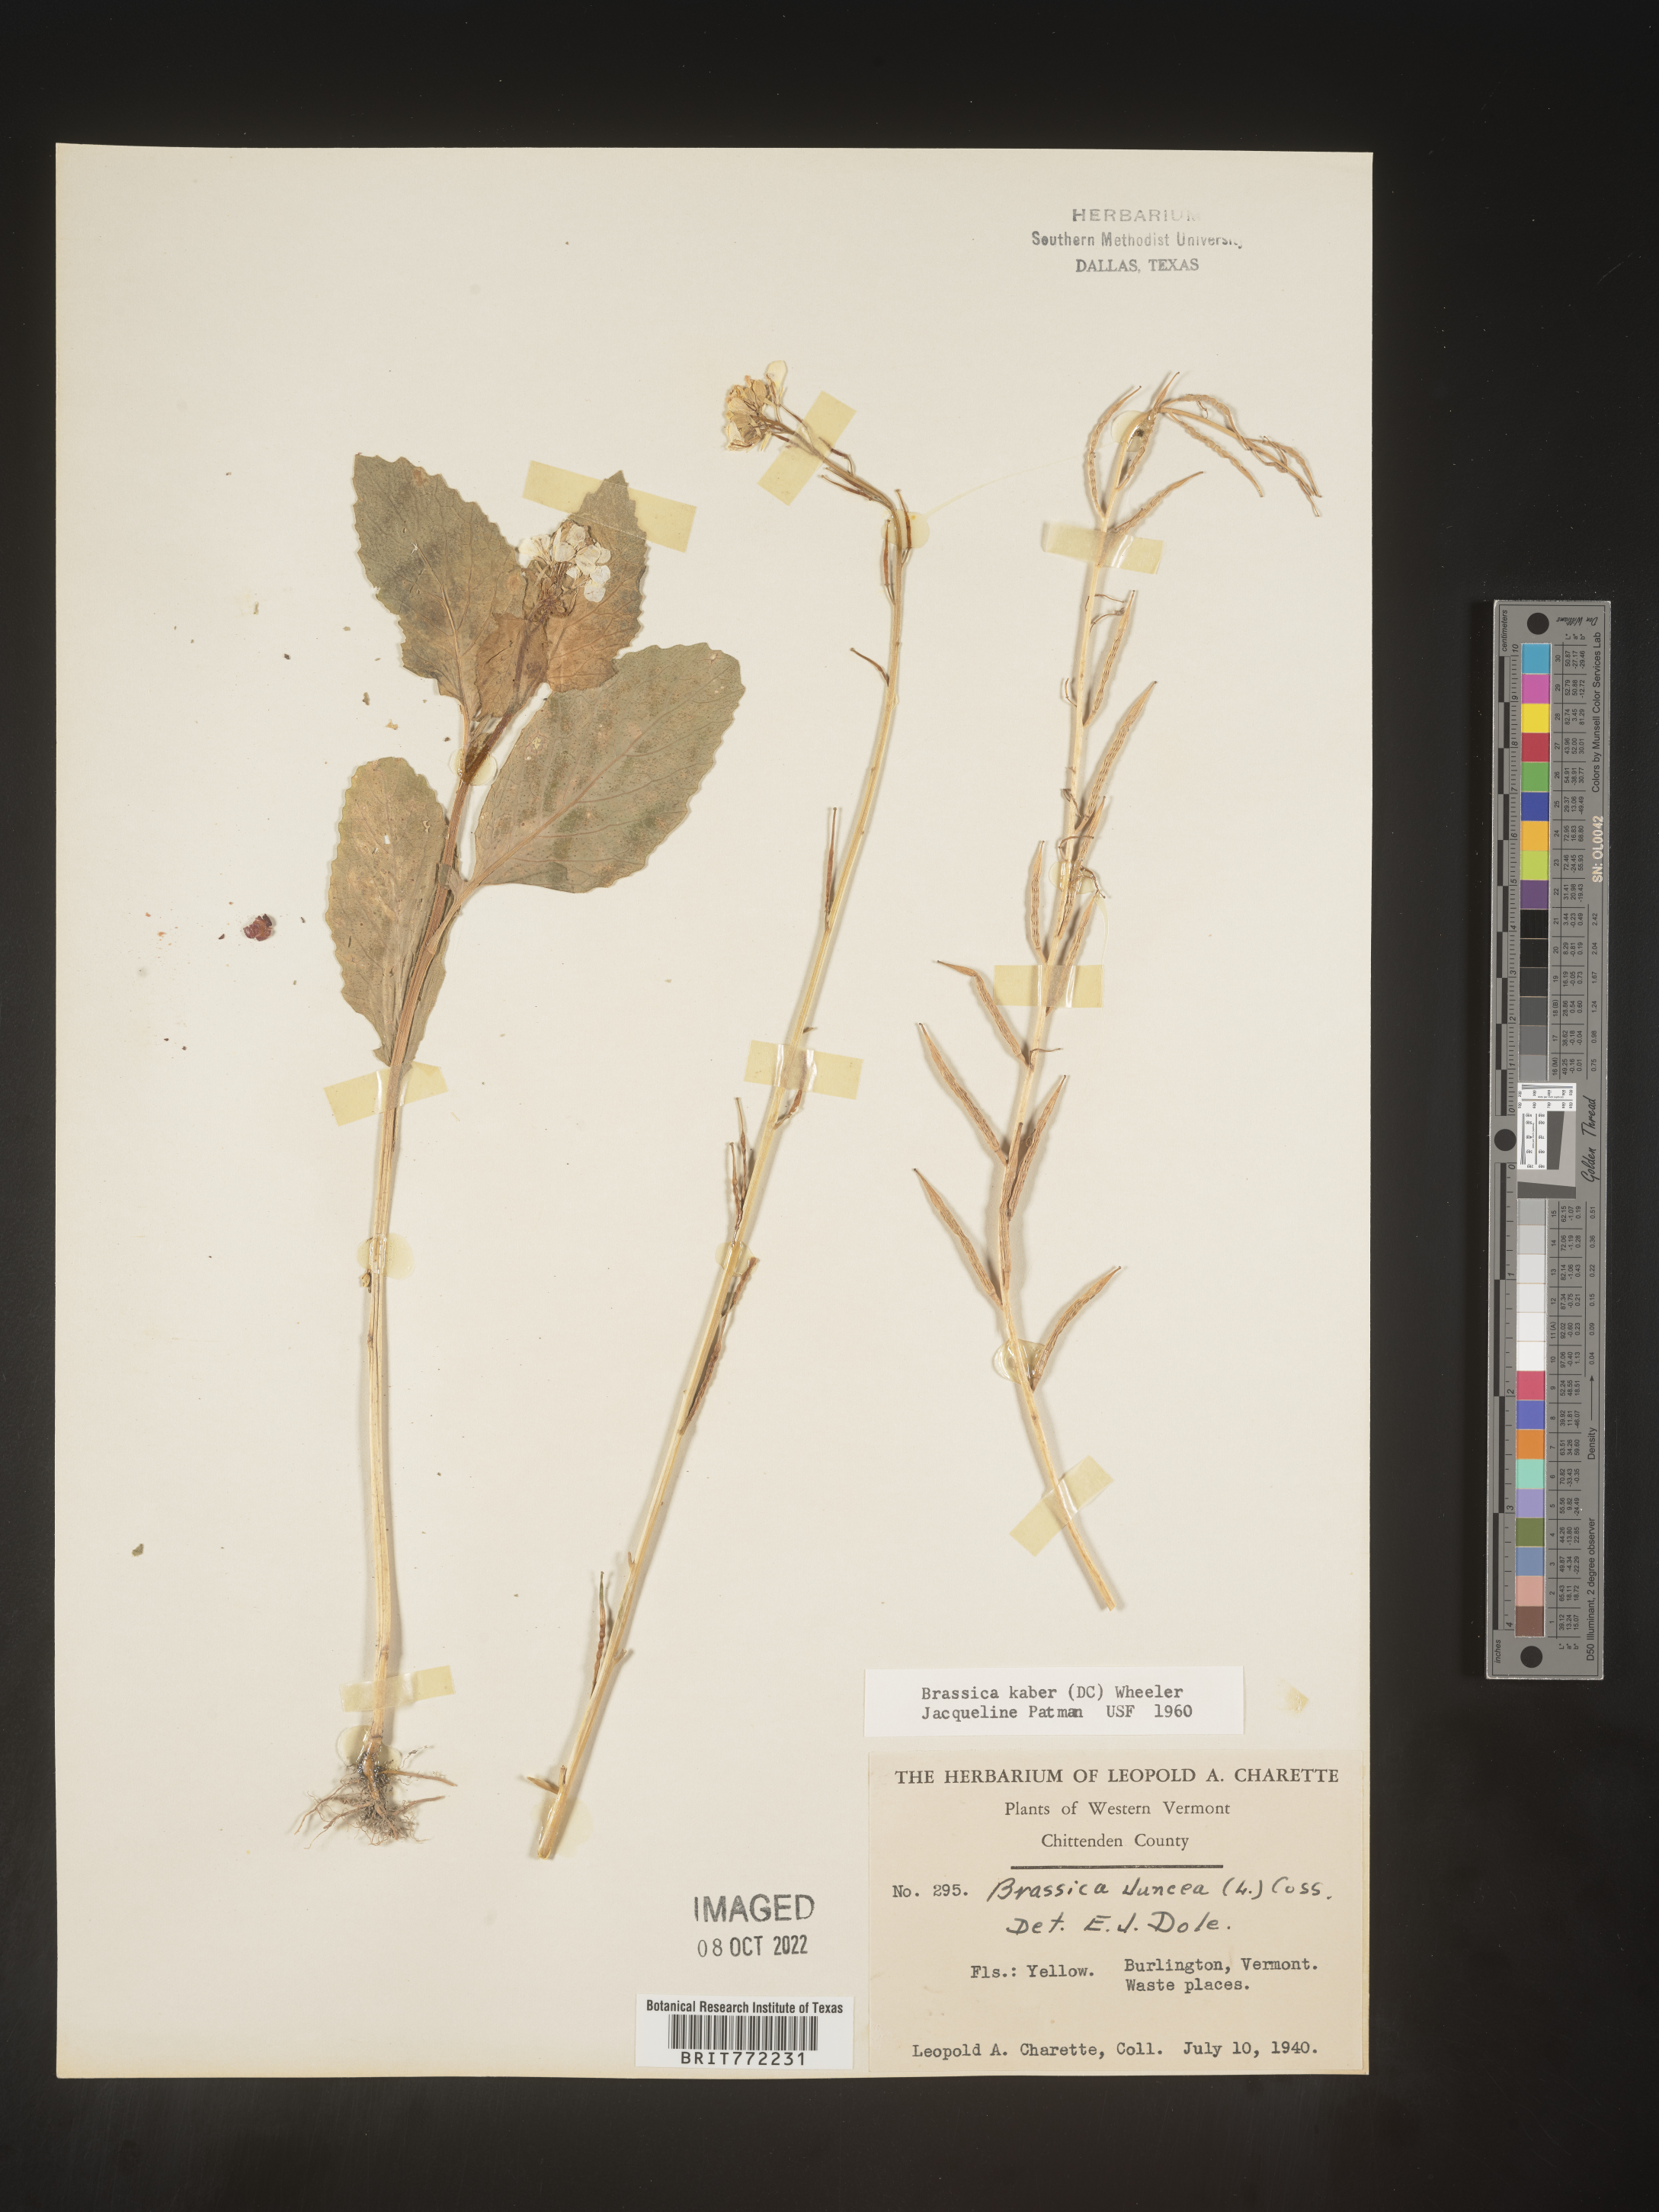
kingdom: Plantae
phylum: Tracheophyta
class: Magnoliopsida
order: Brassicales
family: Brassicaceae
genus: Sinapis
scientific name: Sinapis arvensis
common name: Charlock
